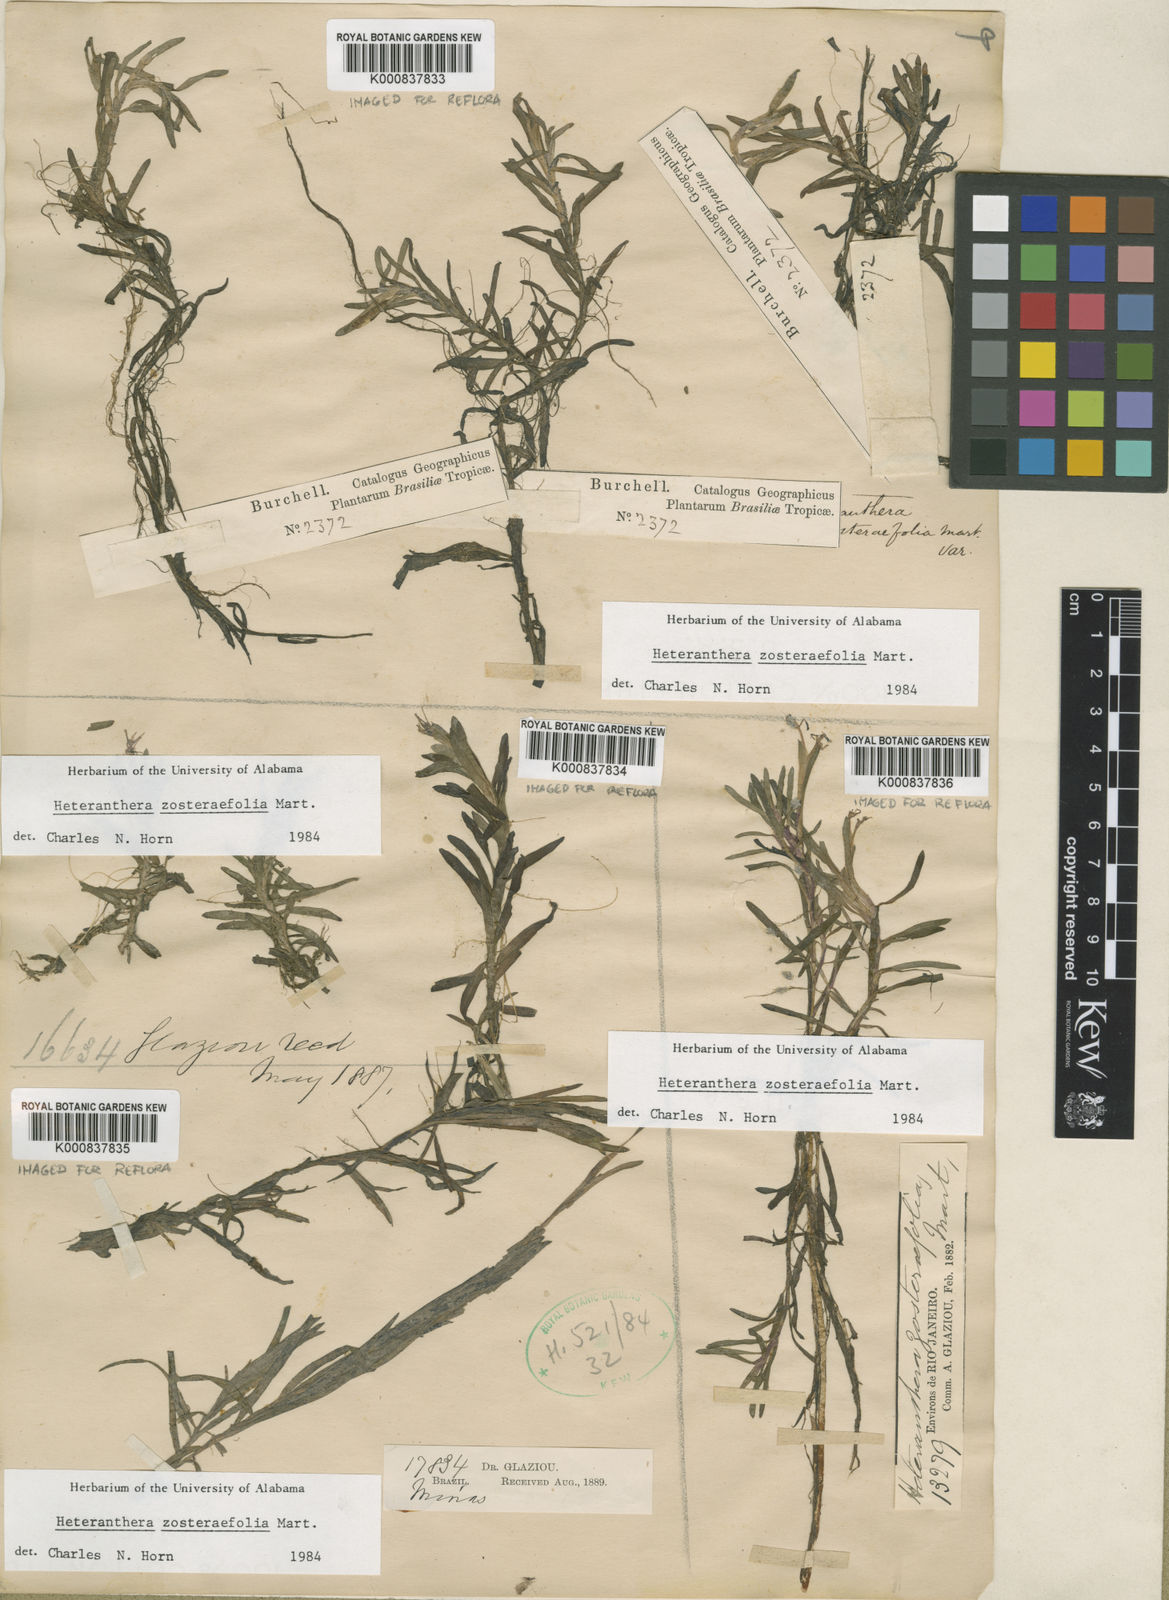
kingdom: Plantae
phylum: Tracheophyta
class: Liliopsida
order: Commelinales
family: Pontederiaceae
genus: Heteranthera
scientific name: Heteranthera zosterifolia
